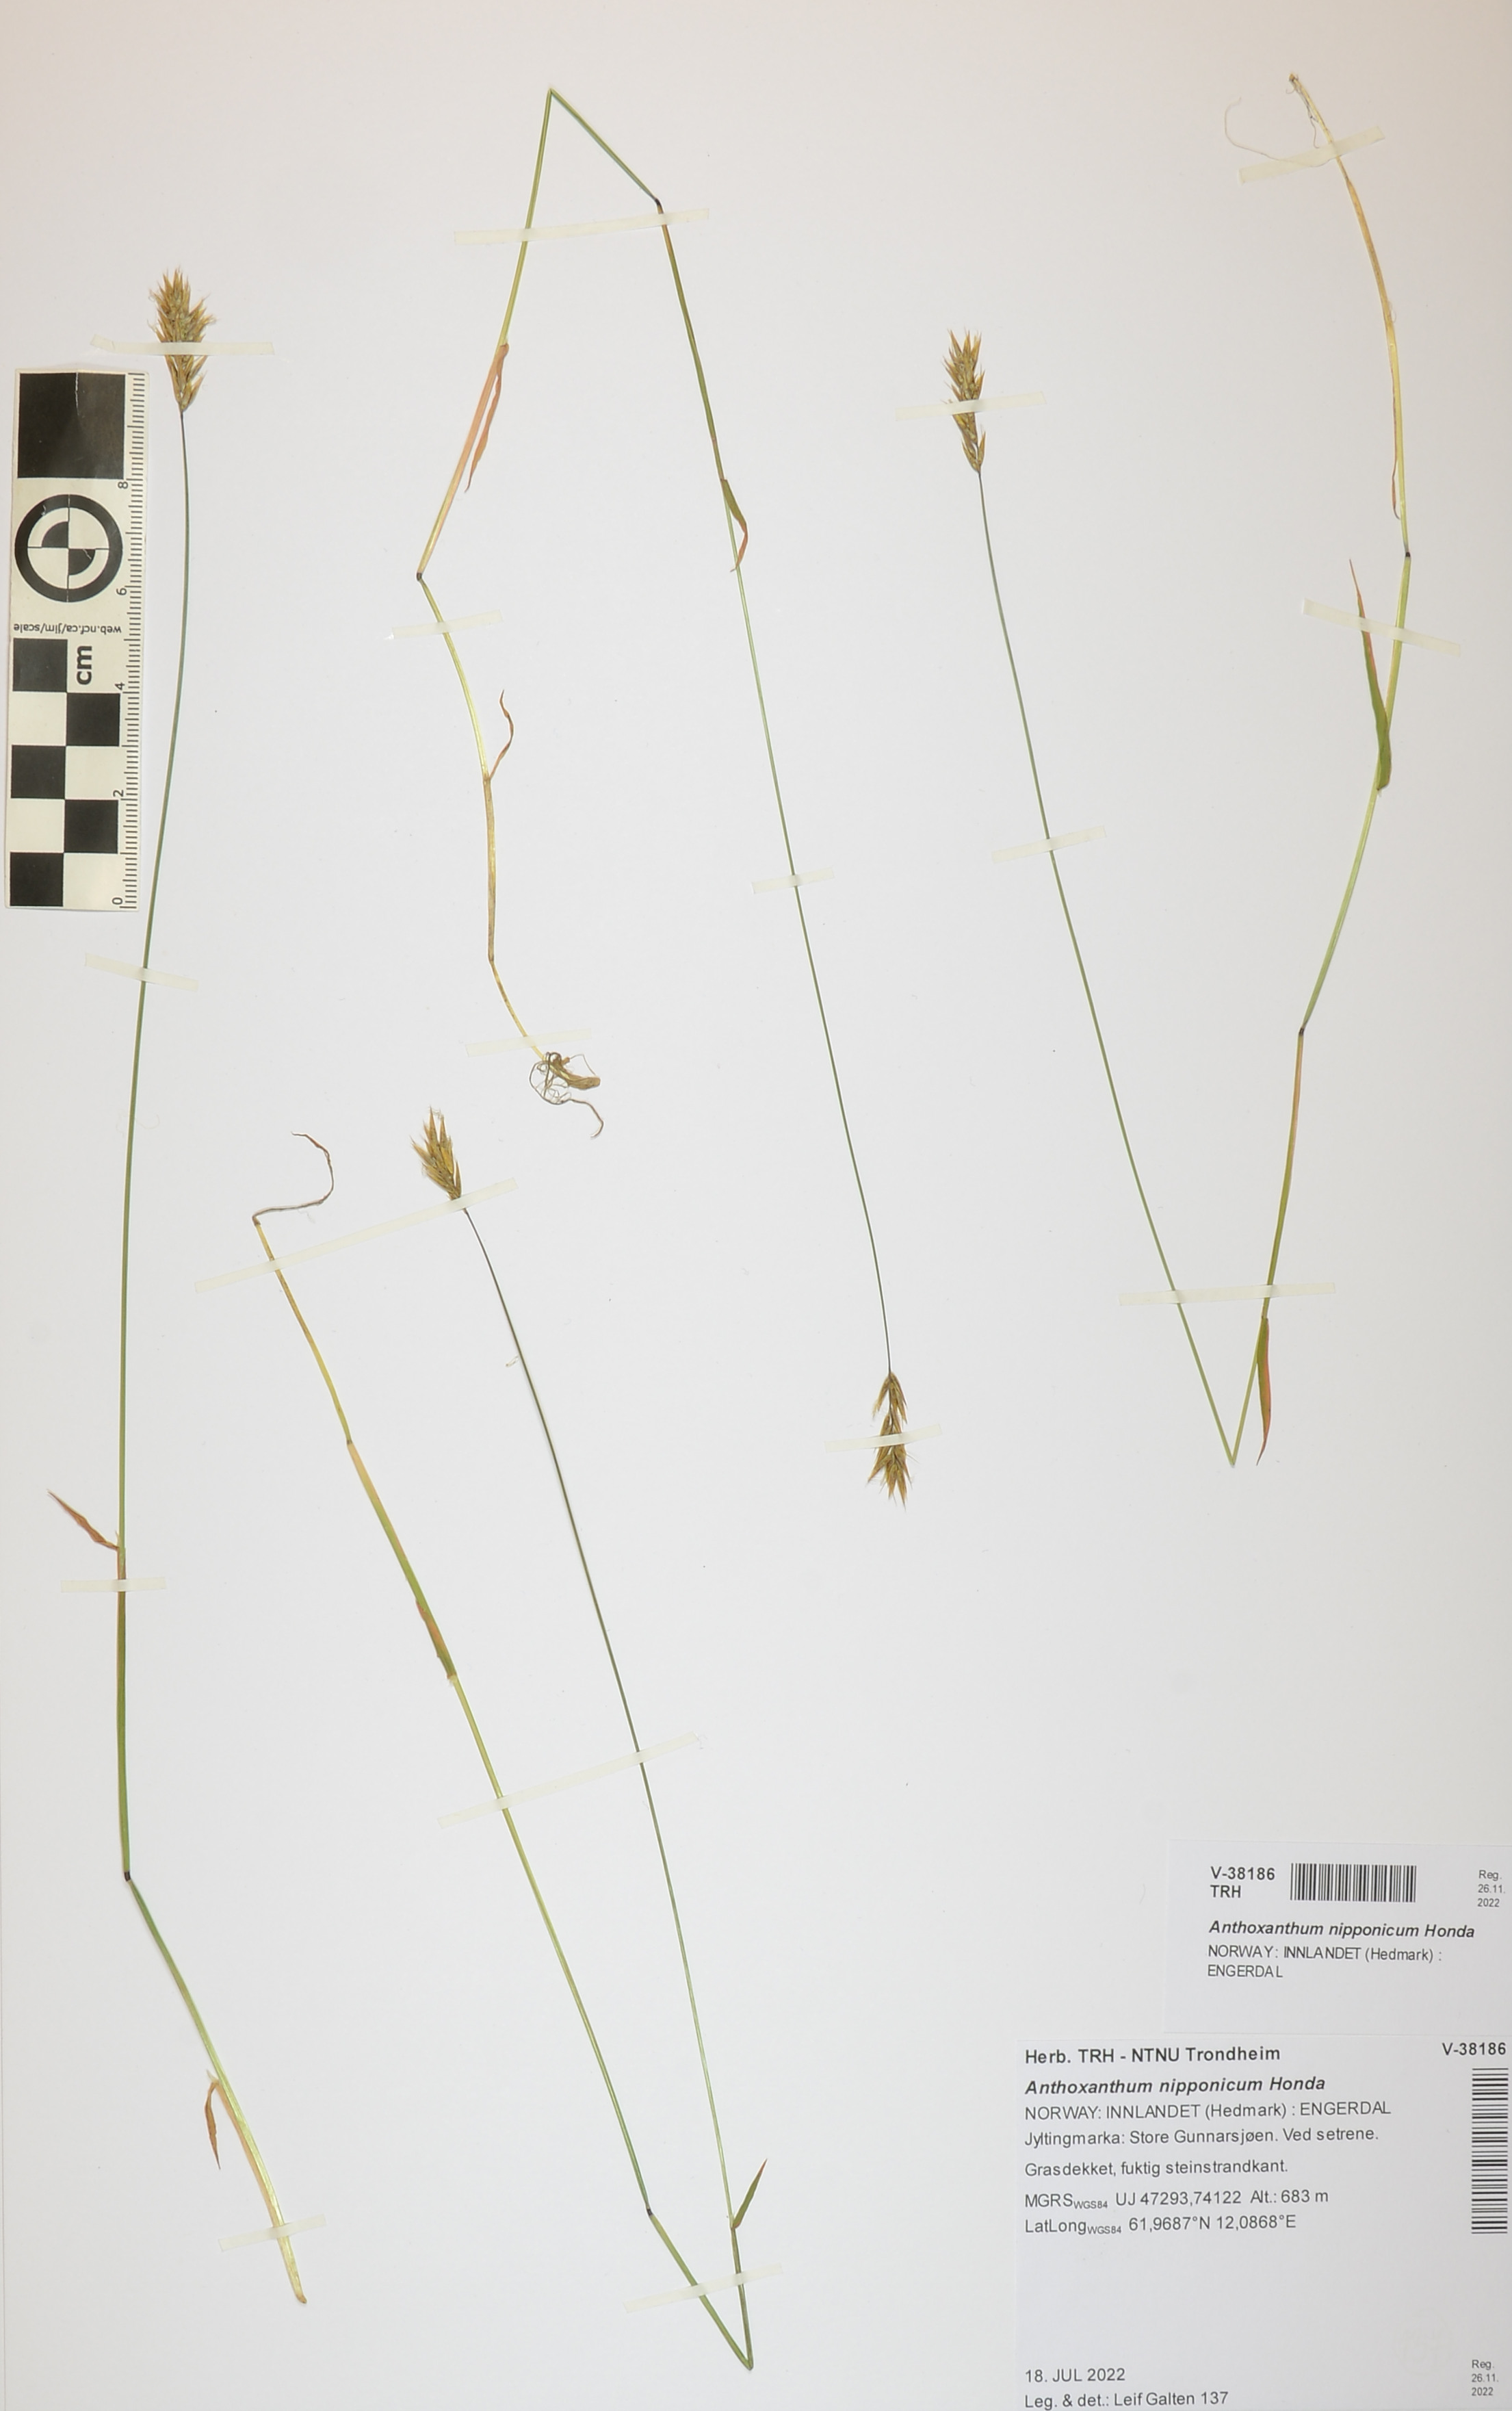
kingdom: Plantae
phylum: Tracheophyta
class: Liliopsida
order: Poales
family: Poaceae
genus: Anthoxanthum
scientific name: Anthoxanthum nipponicum
